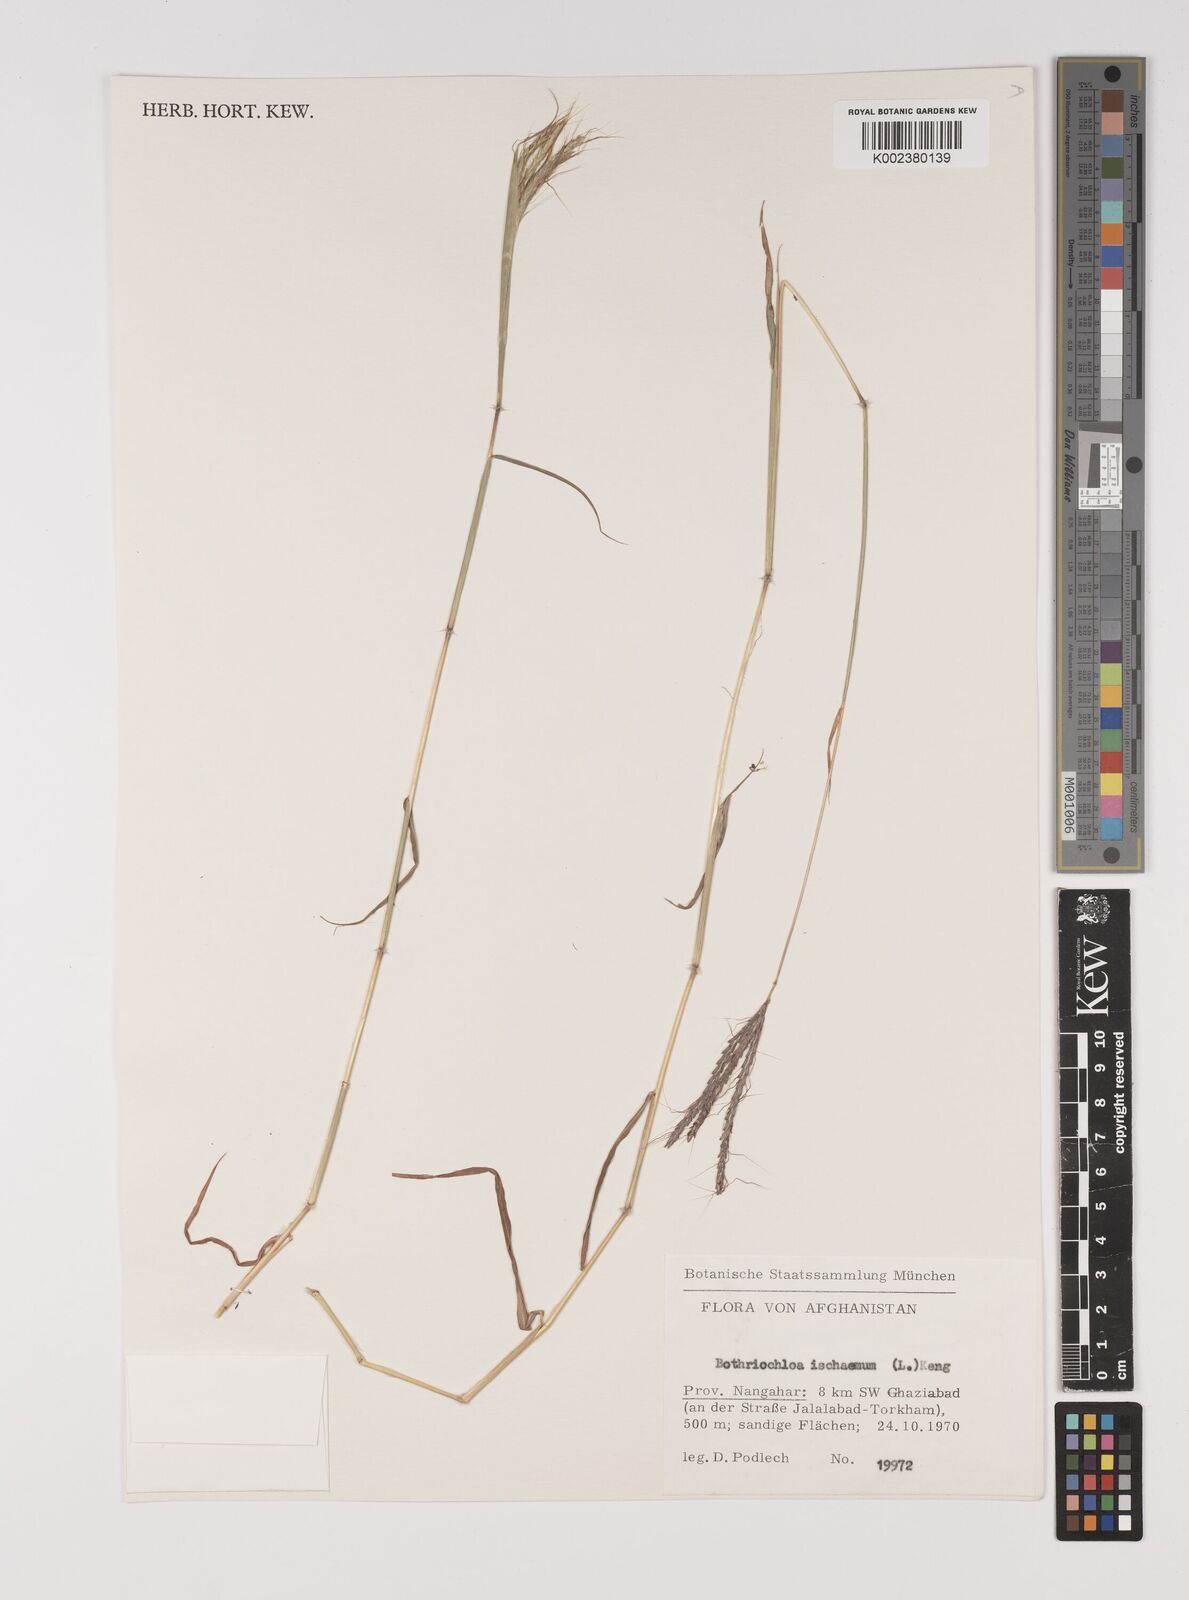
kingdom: Plantae
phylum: Tracheophyta
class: Liliopsida
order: Poales
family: Poaceae
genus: Bothriochloa
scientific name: Bothriochloa ischaemum
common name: Yellow bluestem
